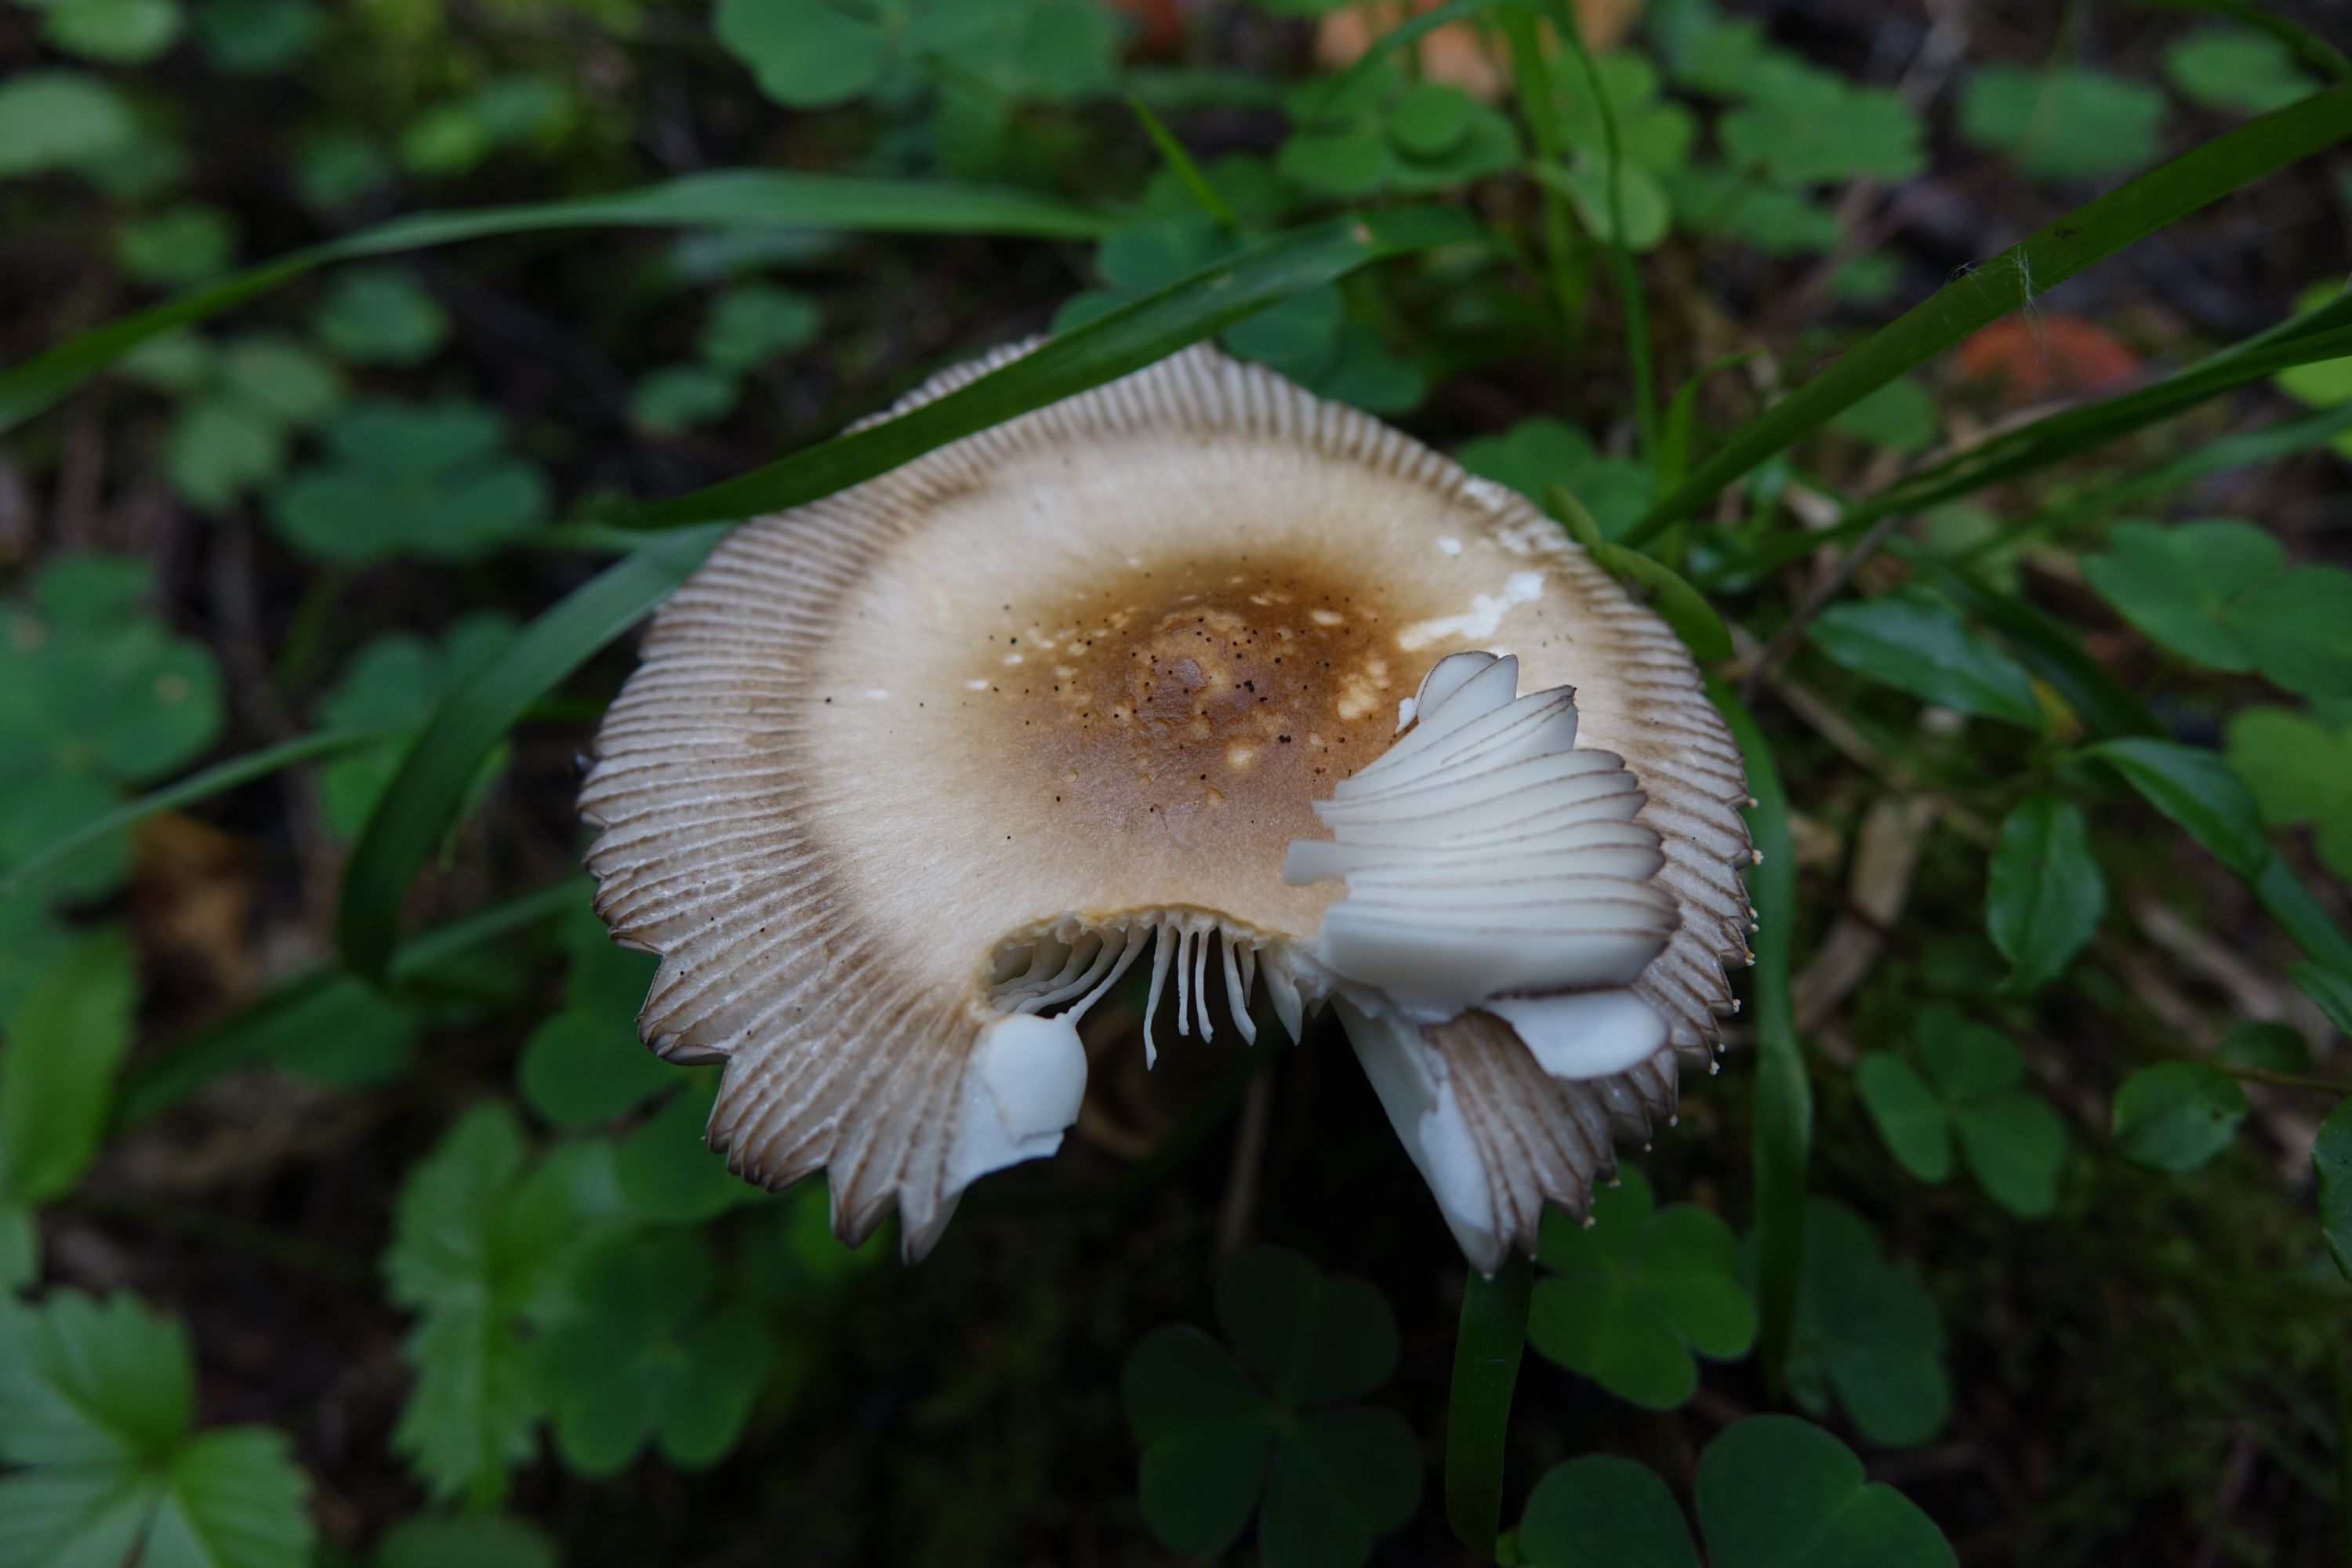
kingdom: Fungi
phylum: Basidiomycota
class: Agaricomycetes
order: Agaricales
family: Amanitaceae
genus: Amanita
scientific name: Amanita battarrae
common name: Banded amanita
